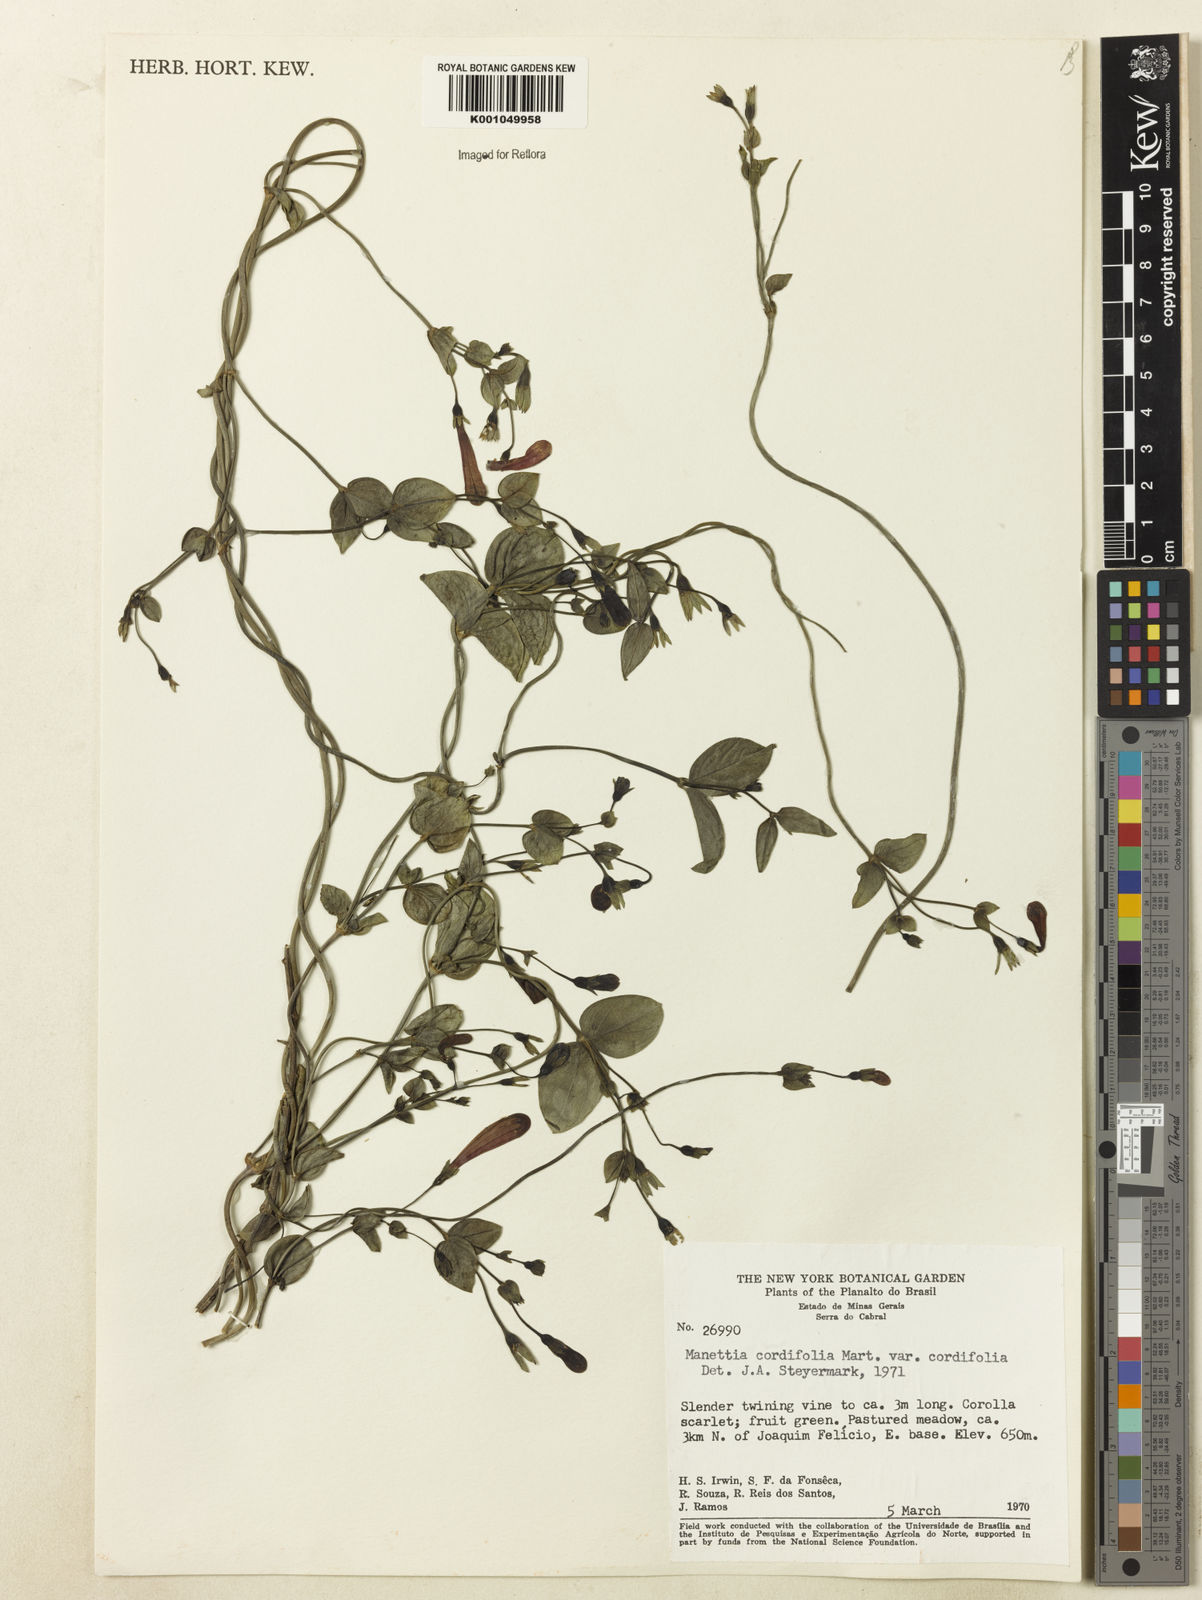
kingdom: Plantae
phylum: Tracheophyta
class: Magnoliopsida
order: Gentianales
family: Rubiaceae
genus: Manettia
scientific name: Manettia cordifolia
